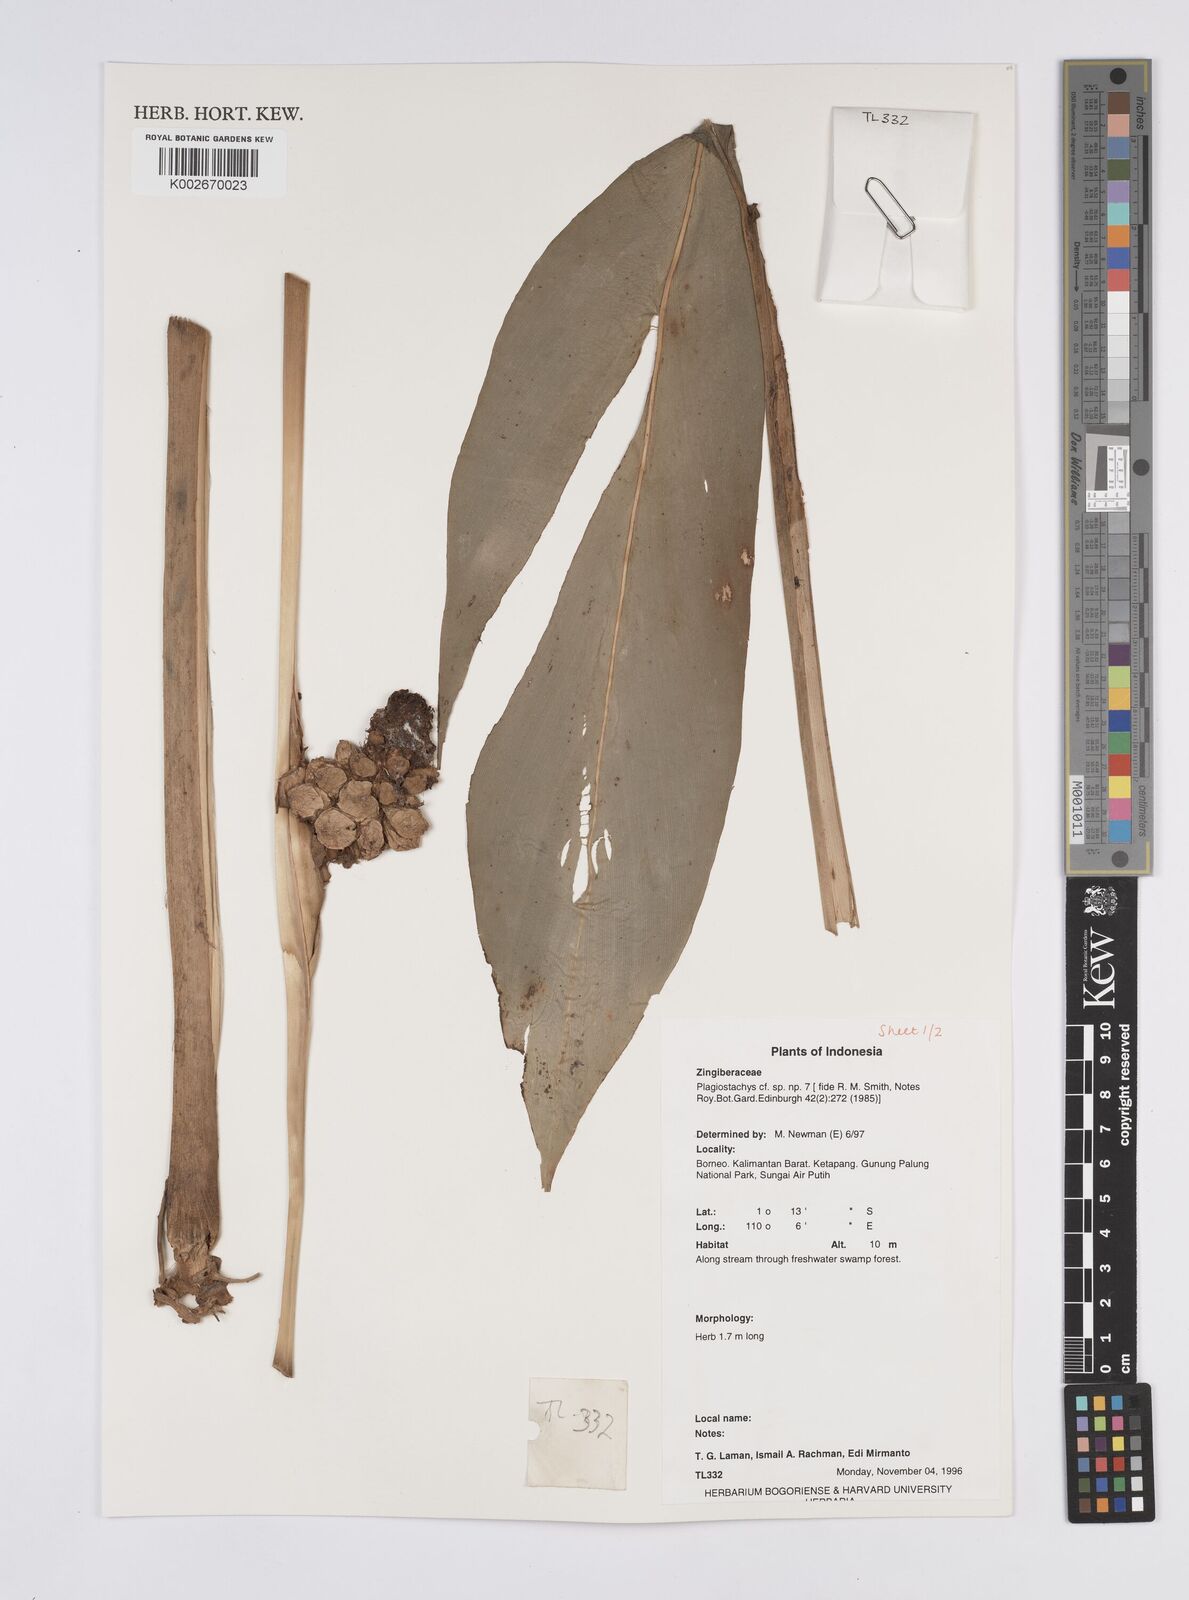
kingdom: Plantae
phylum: Tracheophyta
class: Liliopsida
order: Zingiberales
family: Zingiberaceae
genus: Plagiostachys
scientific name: Plagiostachys
